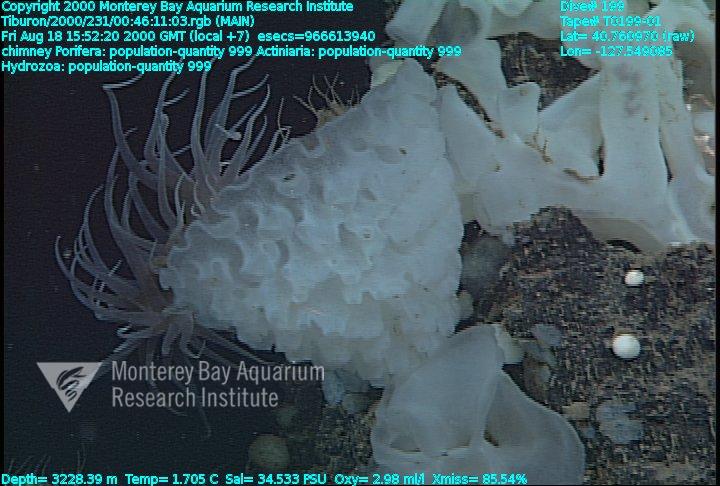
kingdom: Animalia
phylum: Porifera
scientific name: Porifera
